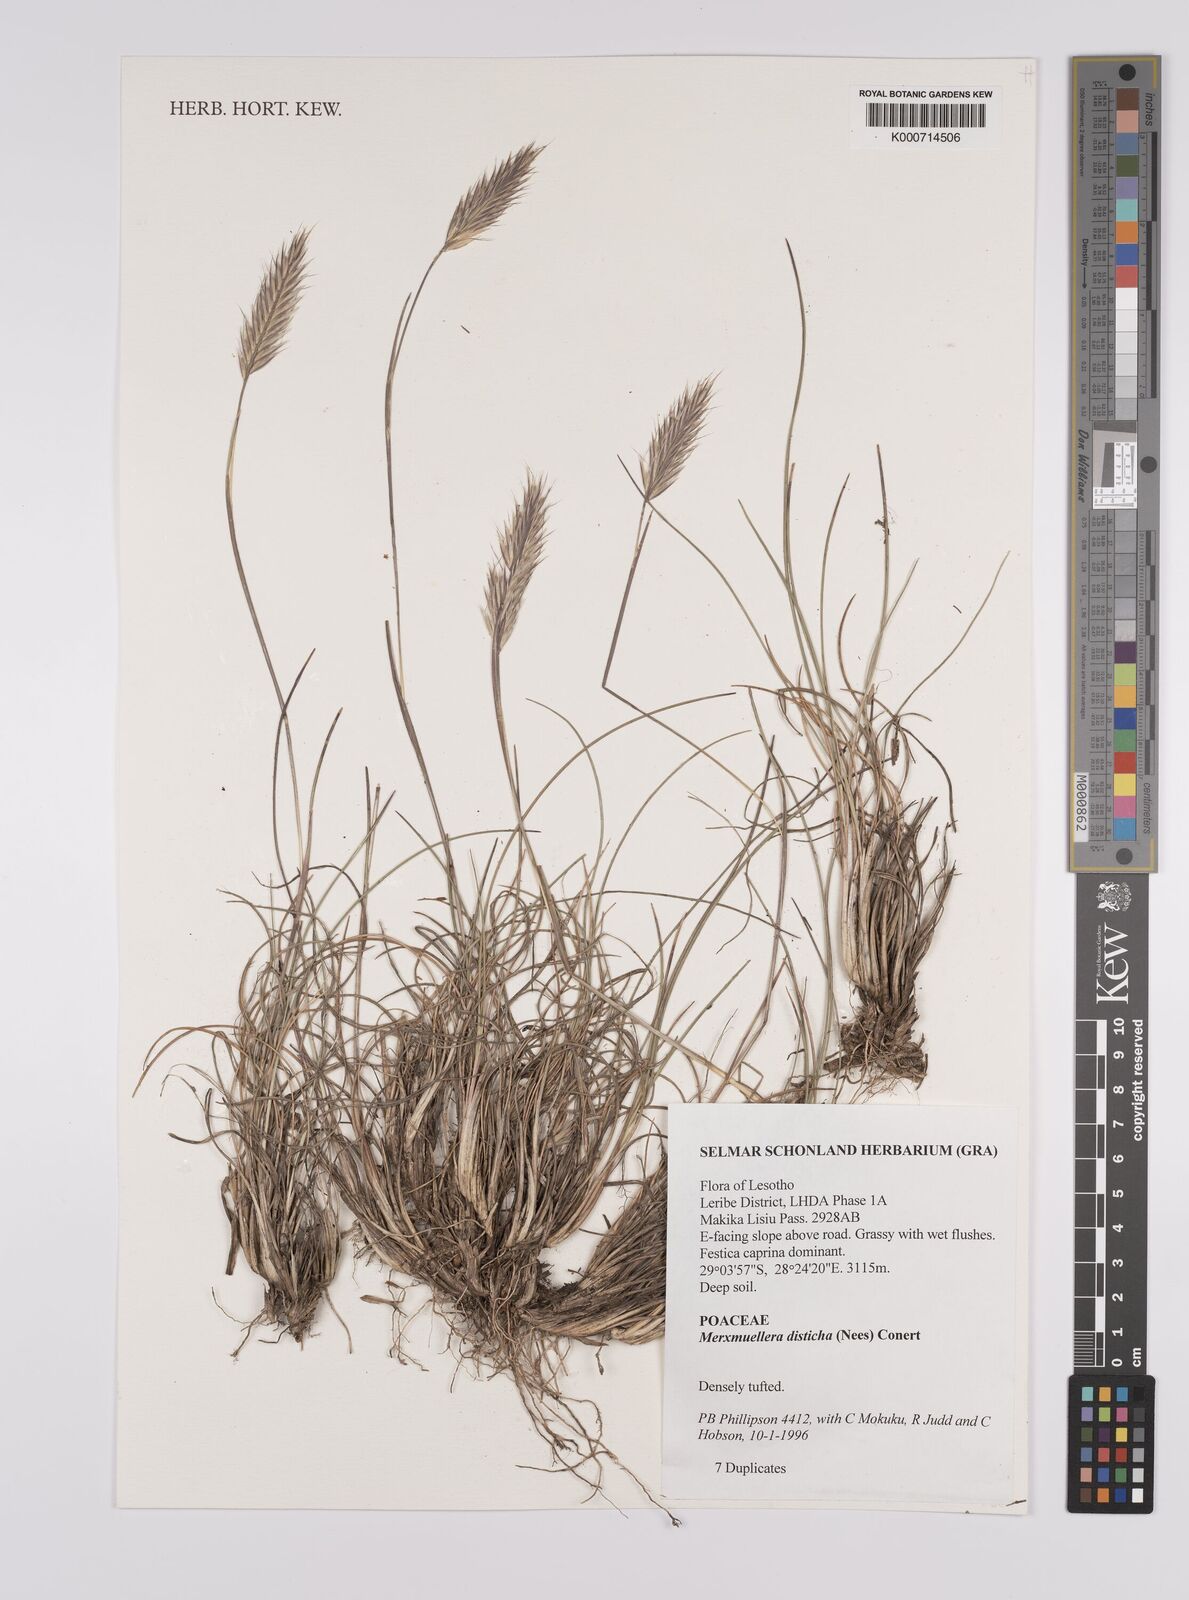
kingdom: Plantae
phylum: Tracheophyta
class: Liliopsida
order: Poales
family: Poaceae
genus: Tenaxia
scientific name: Tenaxia disticha
